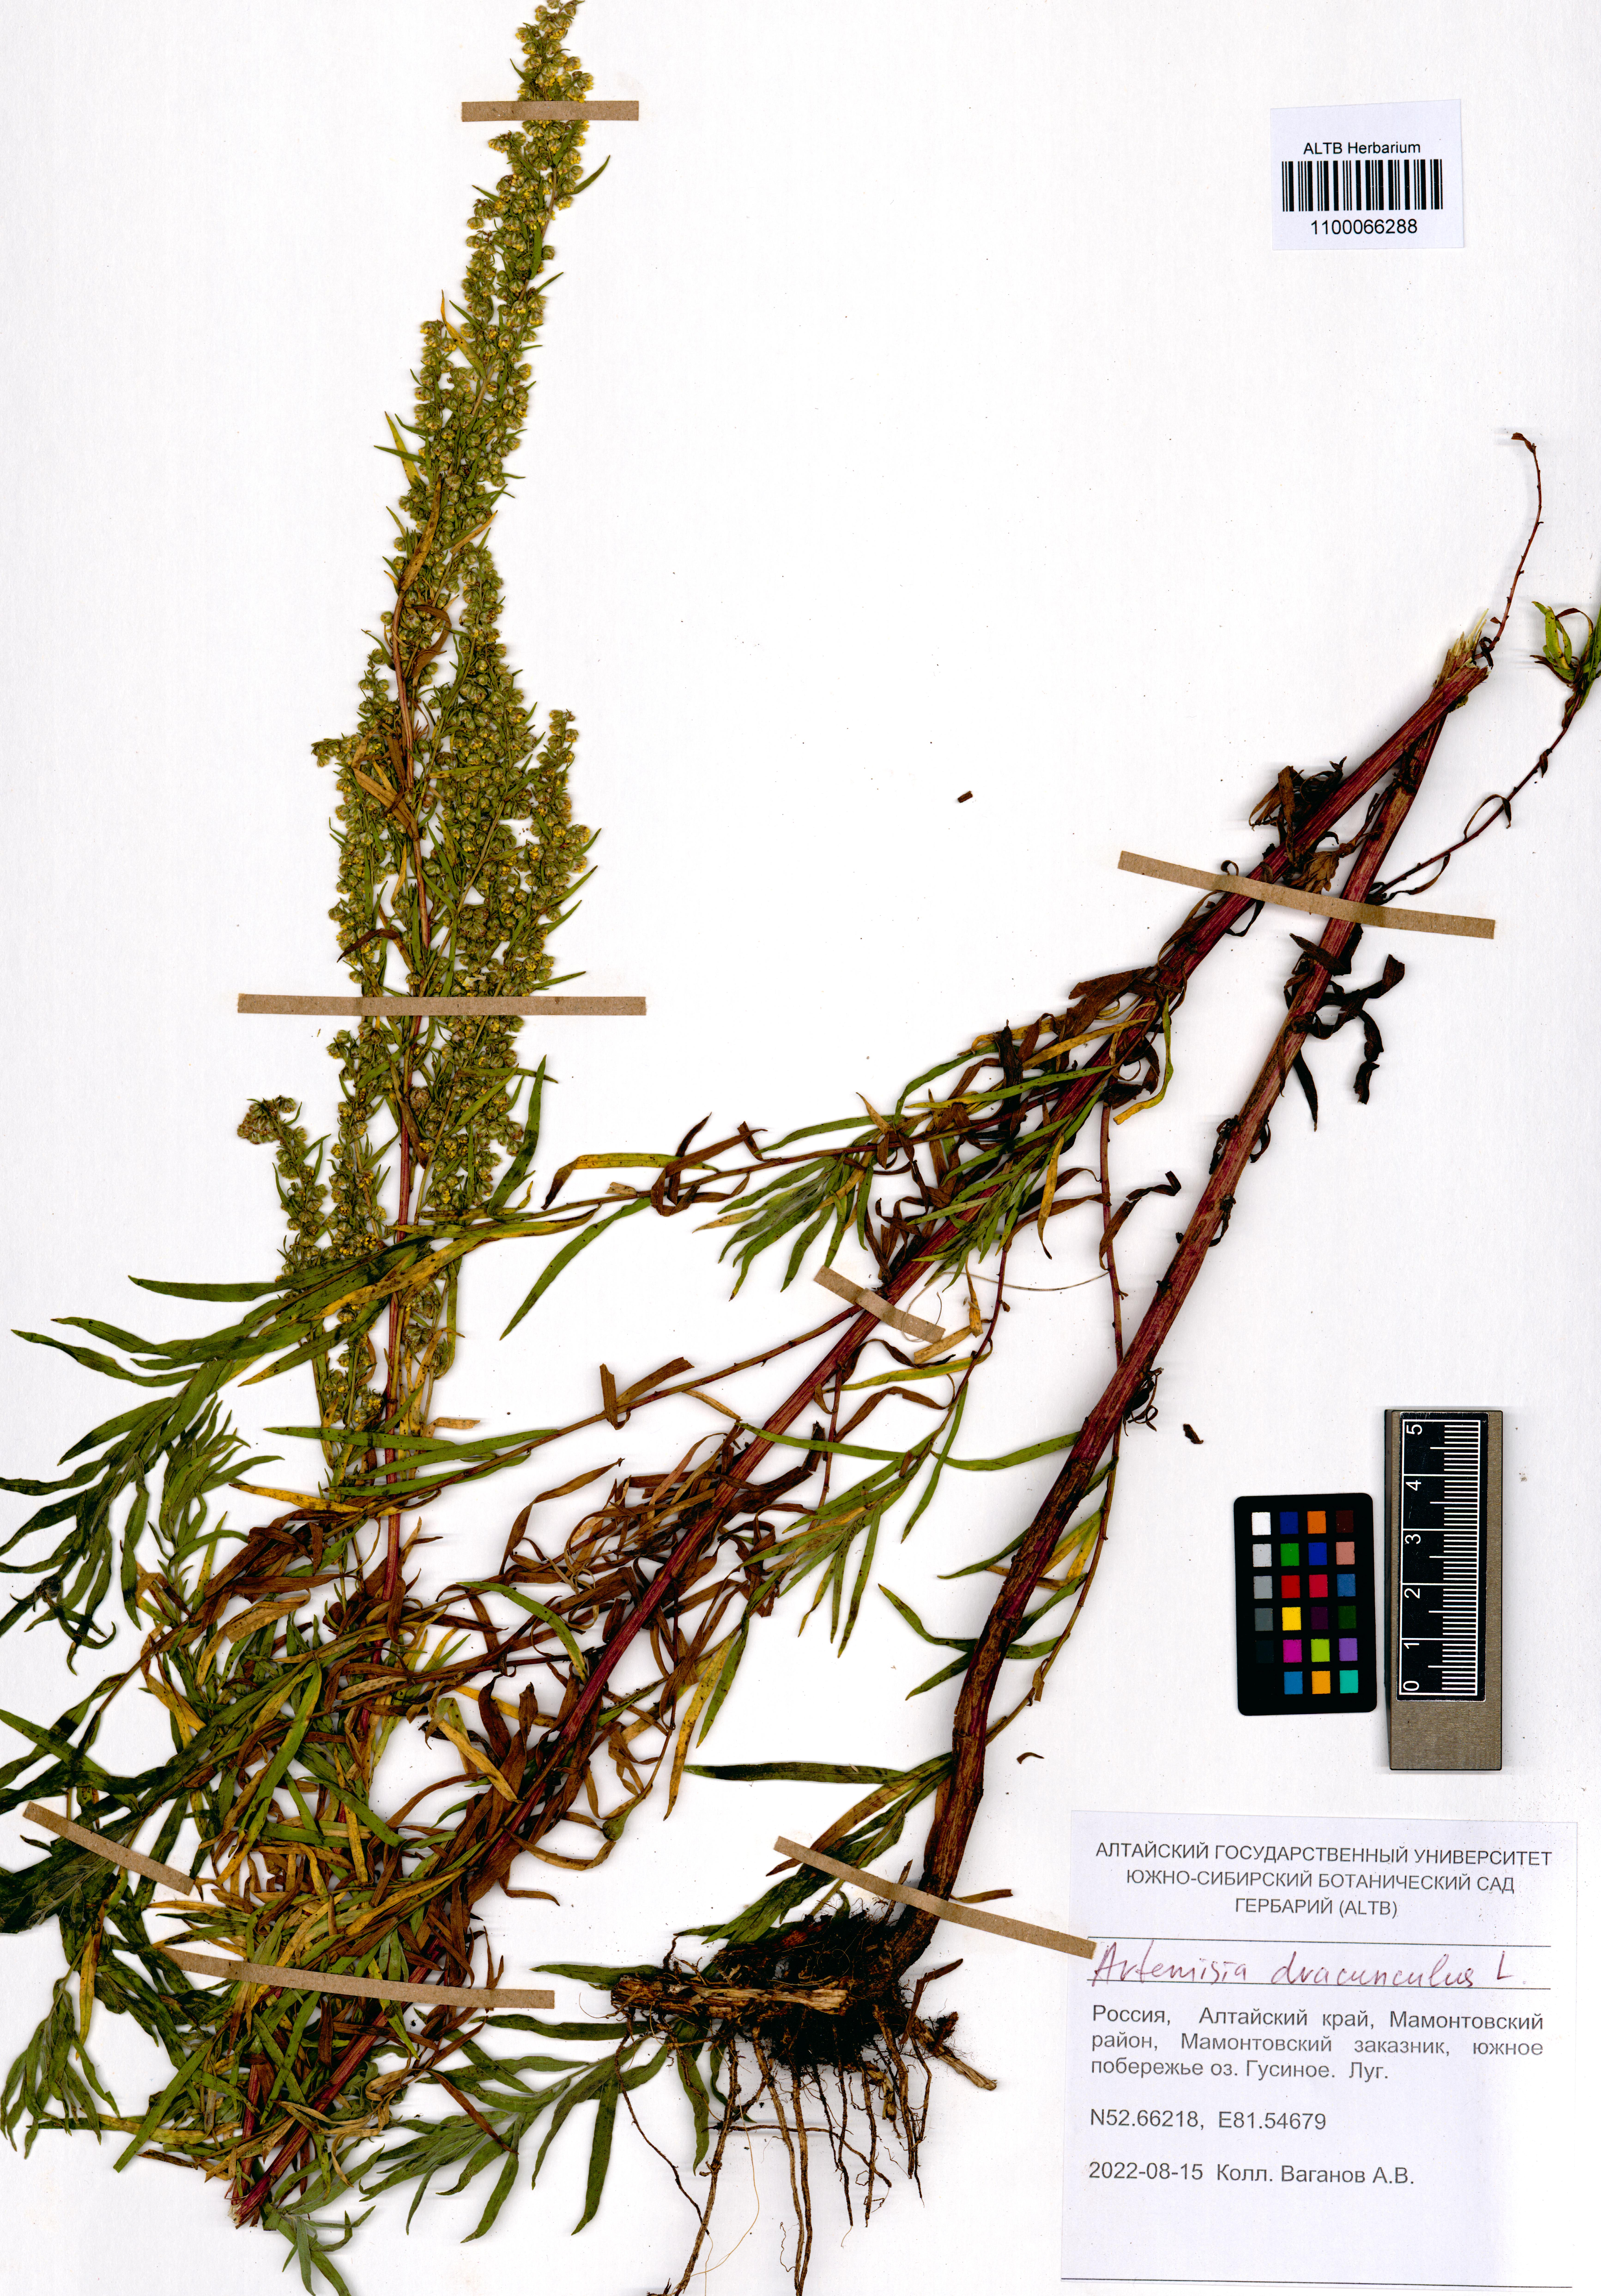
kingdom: Plantae
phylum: Tracheophyta
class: Magnoliopsida
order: Asterales
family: Asteraceae
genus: Artemisia
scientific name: Artemisia dracunculus
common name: Tarragon
